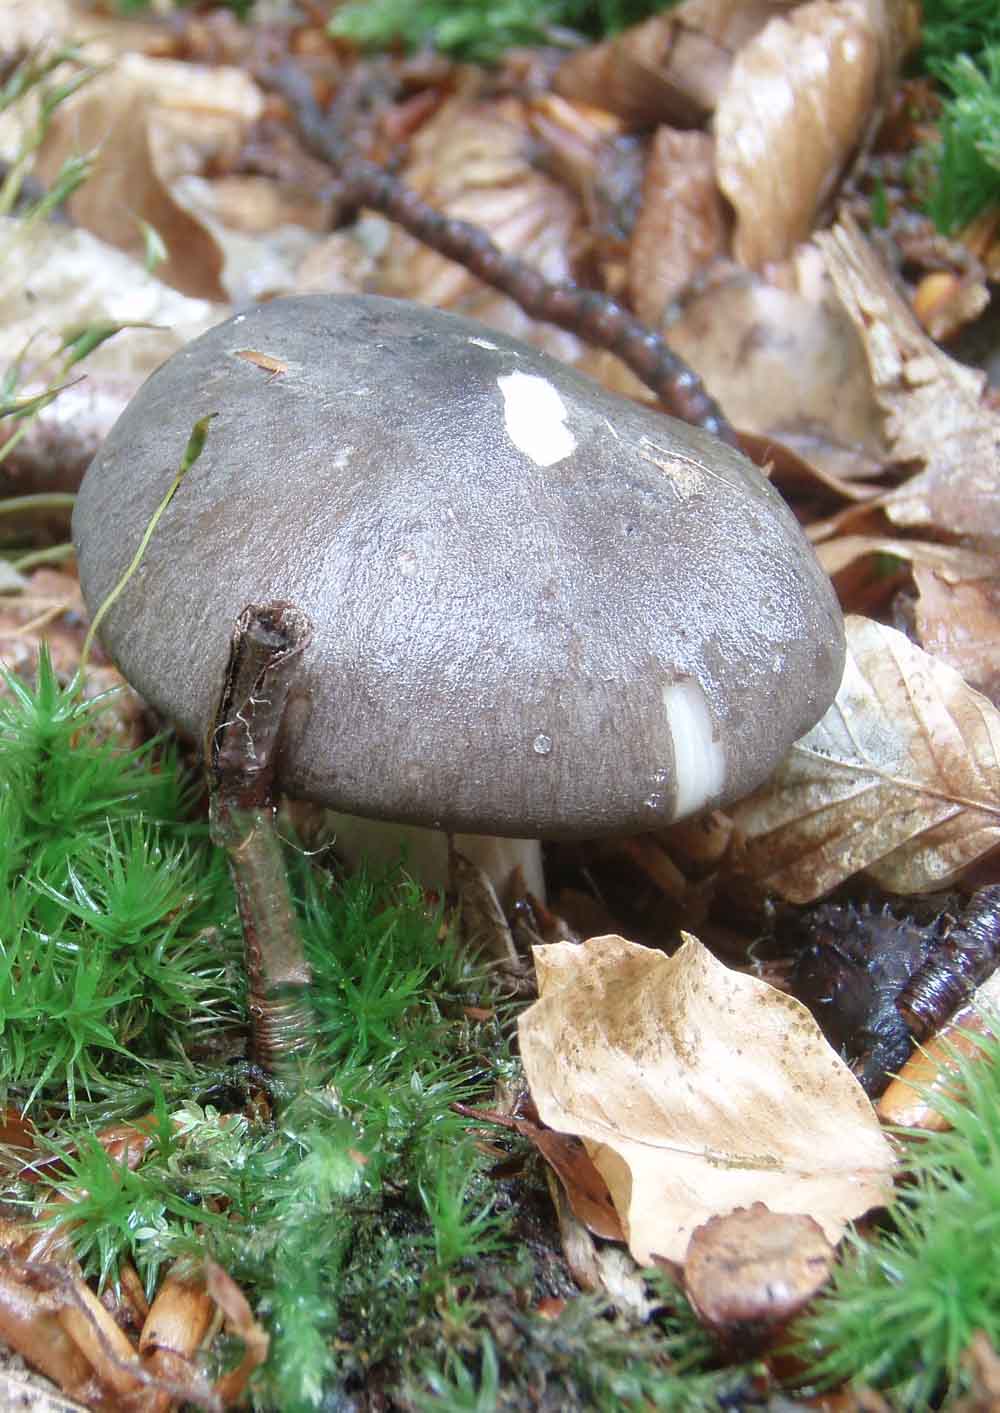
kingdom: Fungi
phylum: Basidiomycota
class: Agaricomycetes
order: Agaricales
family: Tricholomataceae
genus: Megacollybia
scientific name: Megacollybia platyphylla
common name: bredbladet væbnerhat
